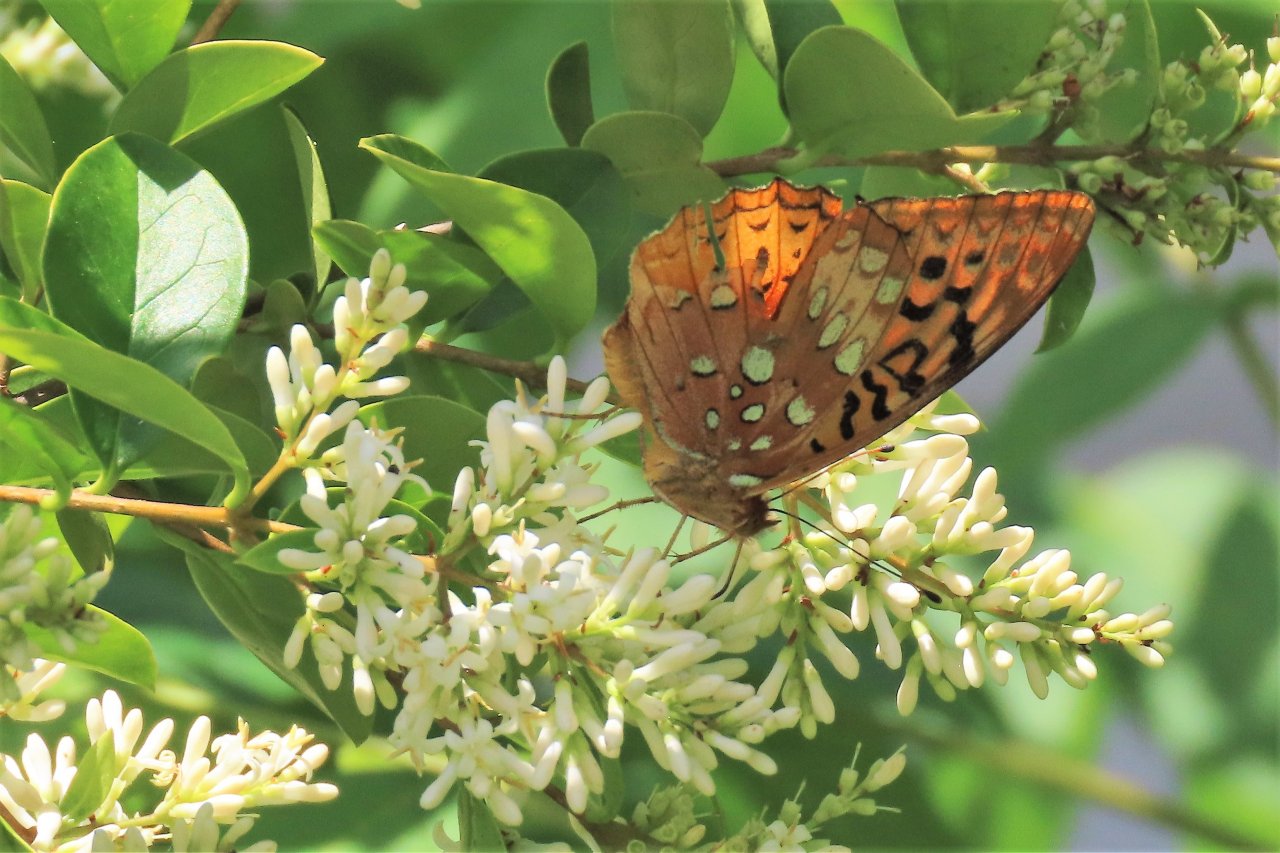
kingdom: Animalia
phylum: Arthropoda
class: Insecta
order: Lepidoptera
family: Nymphalidae
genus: Speyeria
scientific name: Speyeria cybele
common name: Great Spangled Fritillary
